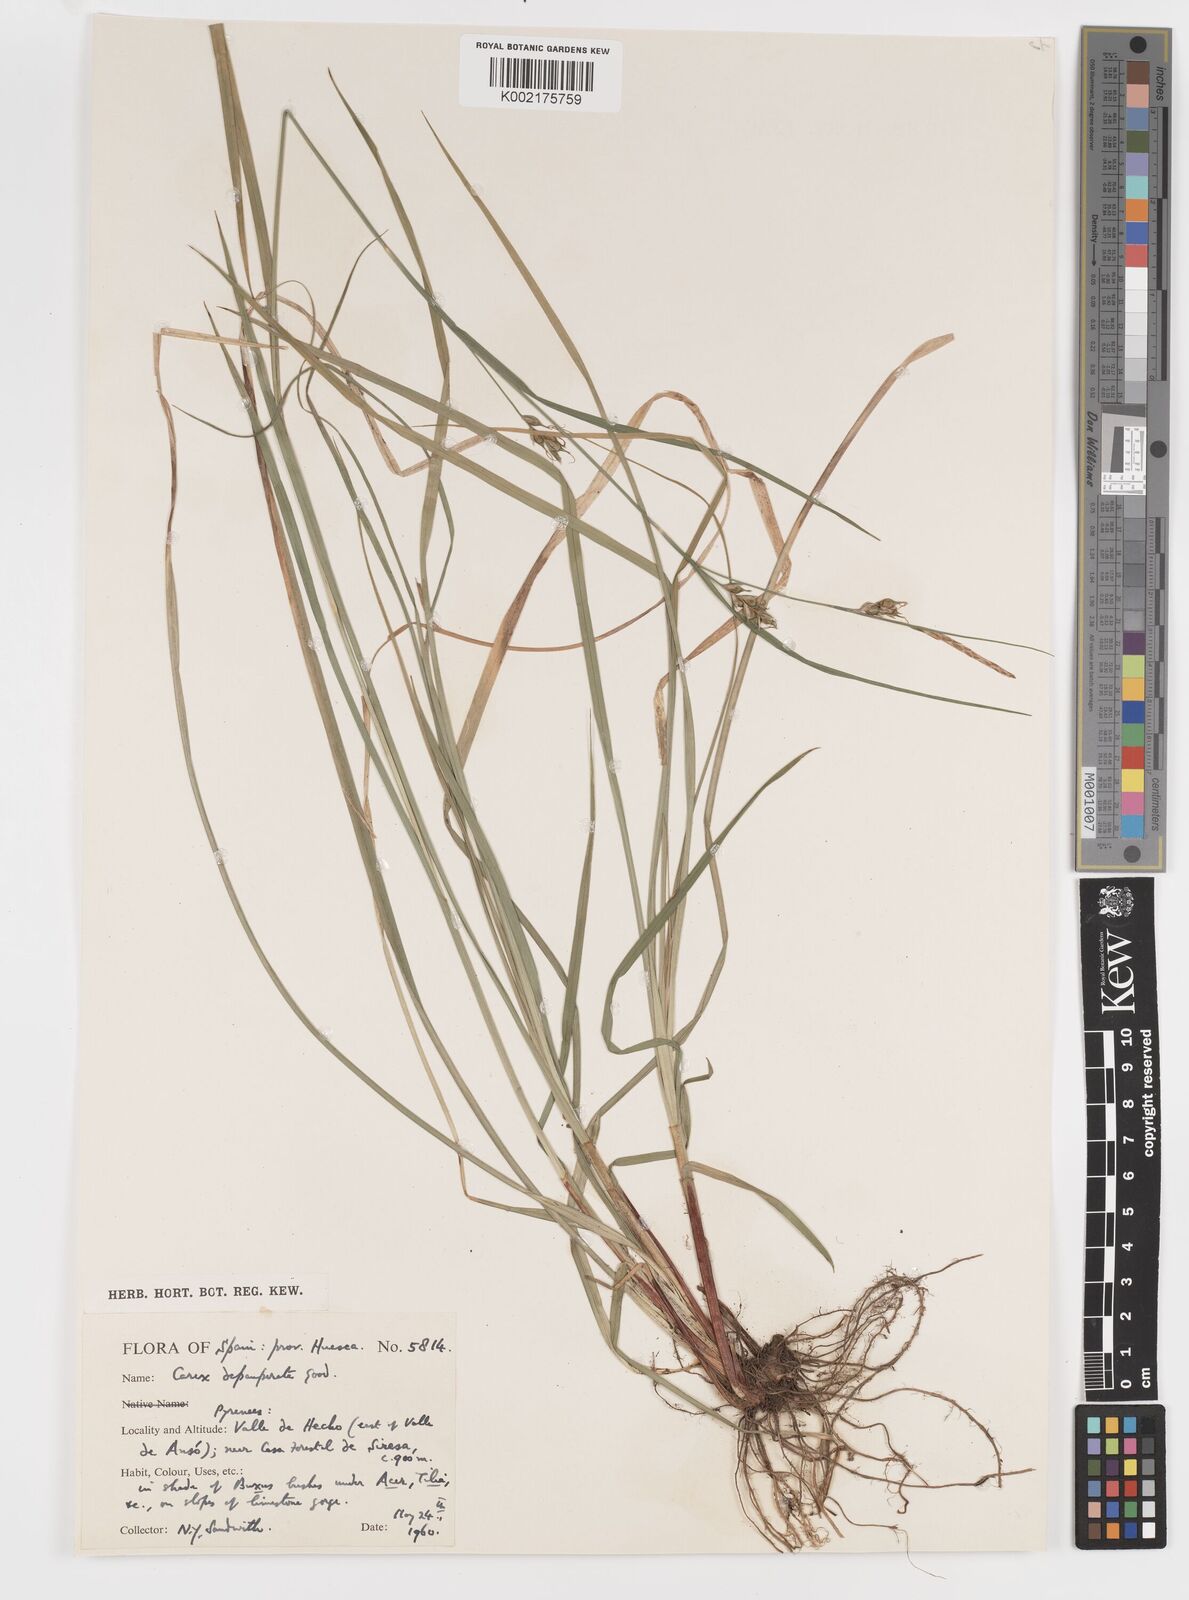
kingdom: Plantae
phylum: Tracheophyta
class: Liliopsida
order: Poales
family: Cyperaceae
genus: Carex
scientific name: Carex
